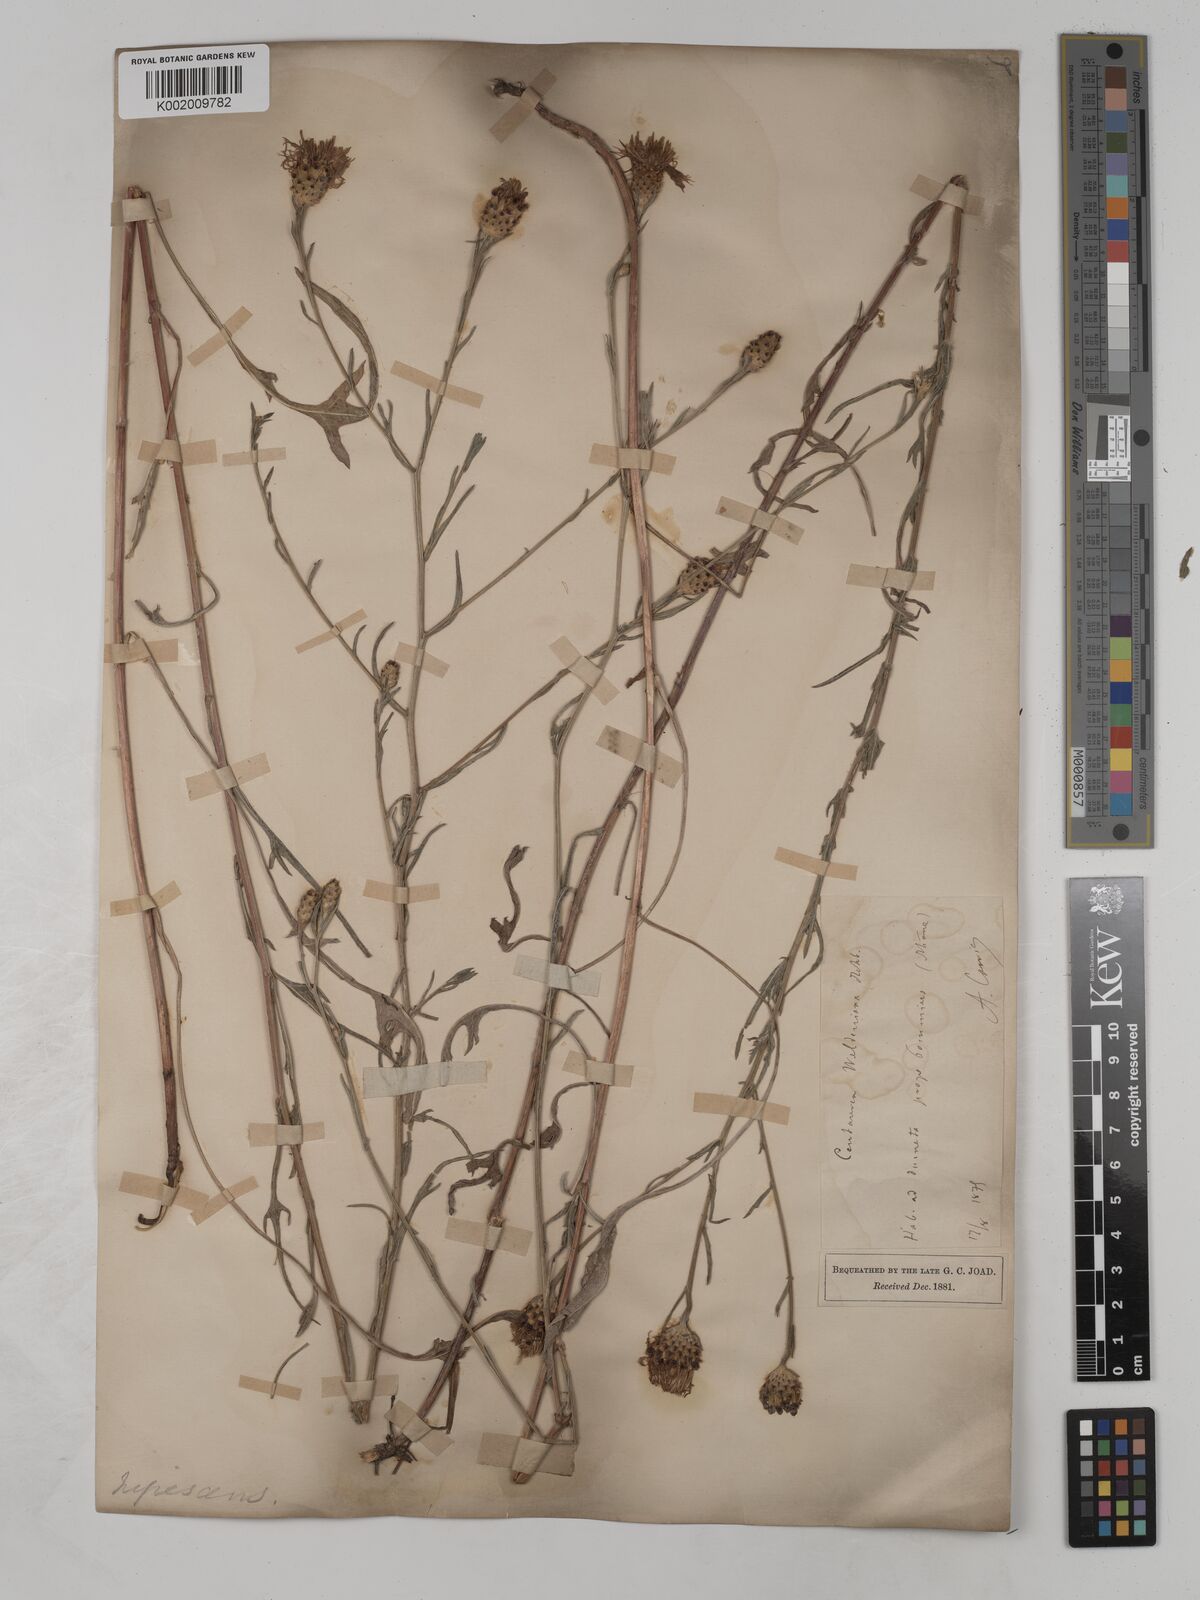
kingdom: Plantae
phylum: Tracheophyta
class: Magnoliopsida
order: Asterales
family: Asteraceae
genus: Centaurea
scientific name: Centaurea timbalii
